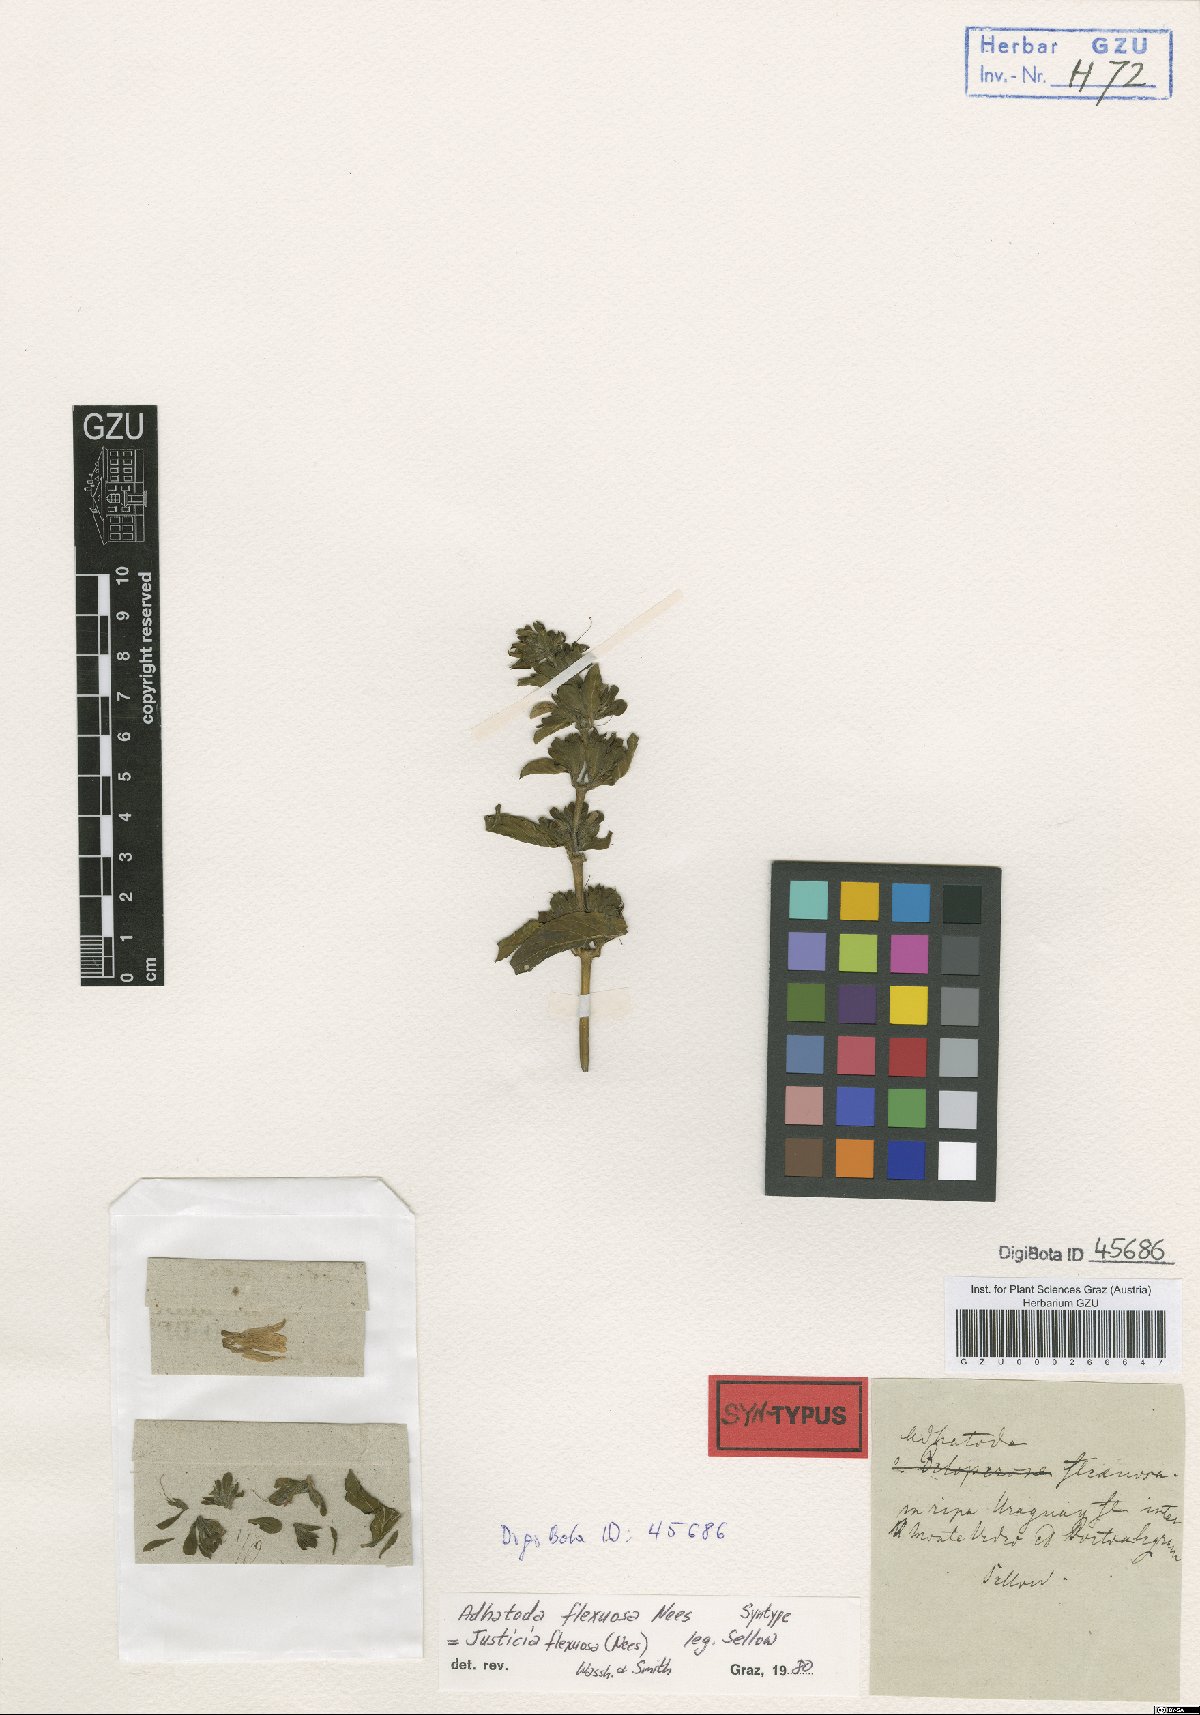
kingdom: Plantae
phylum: Tracheophyta
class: Magnoliopsida
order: Lamiales
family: Acanthaceae
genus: Poikilacanthus
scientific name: Poikilacanthus glandulosus
